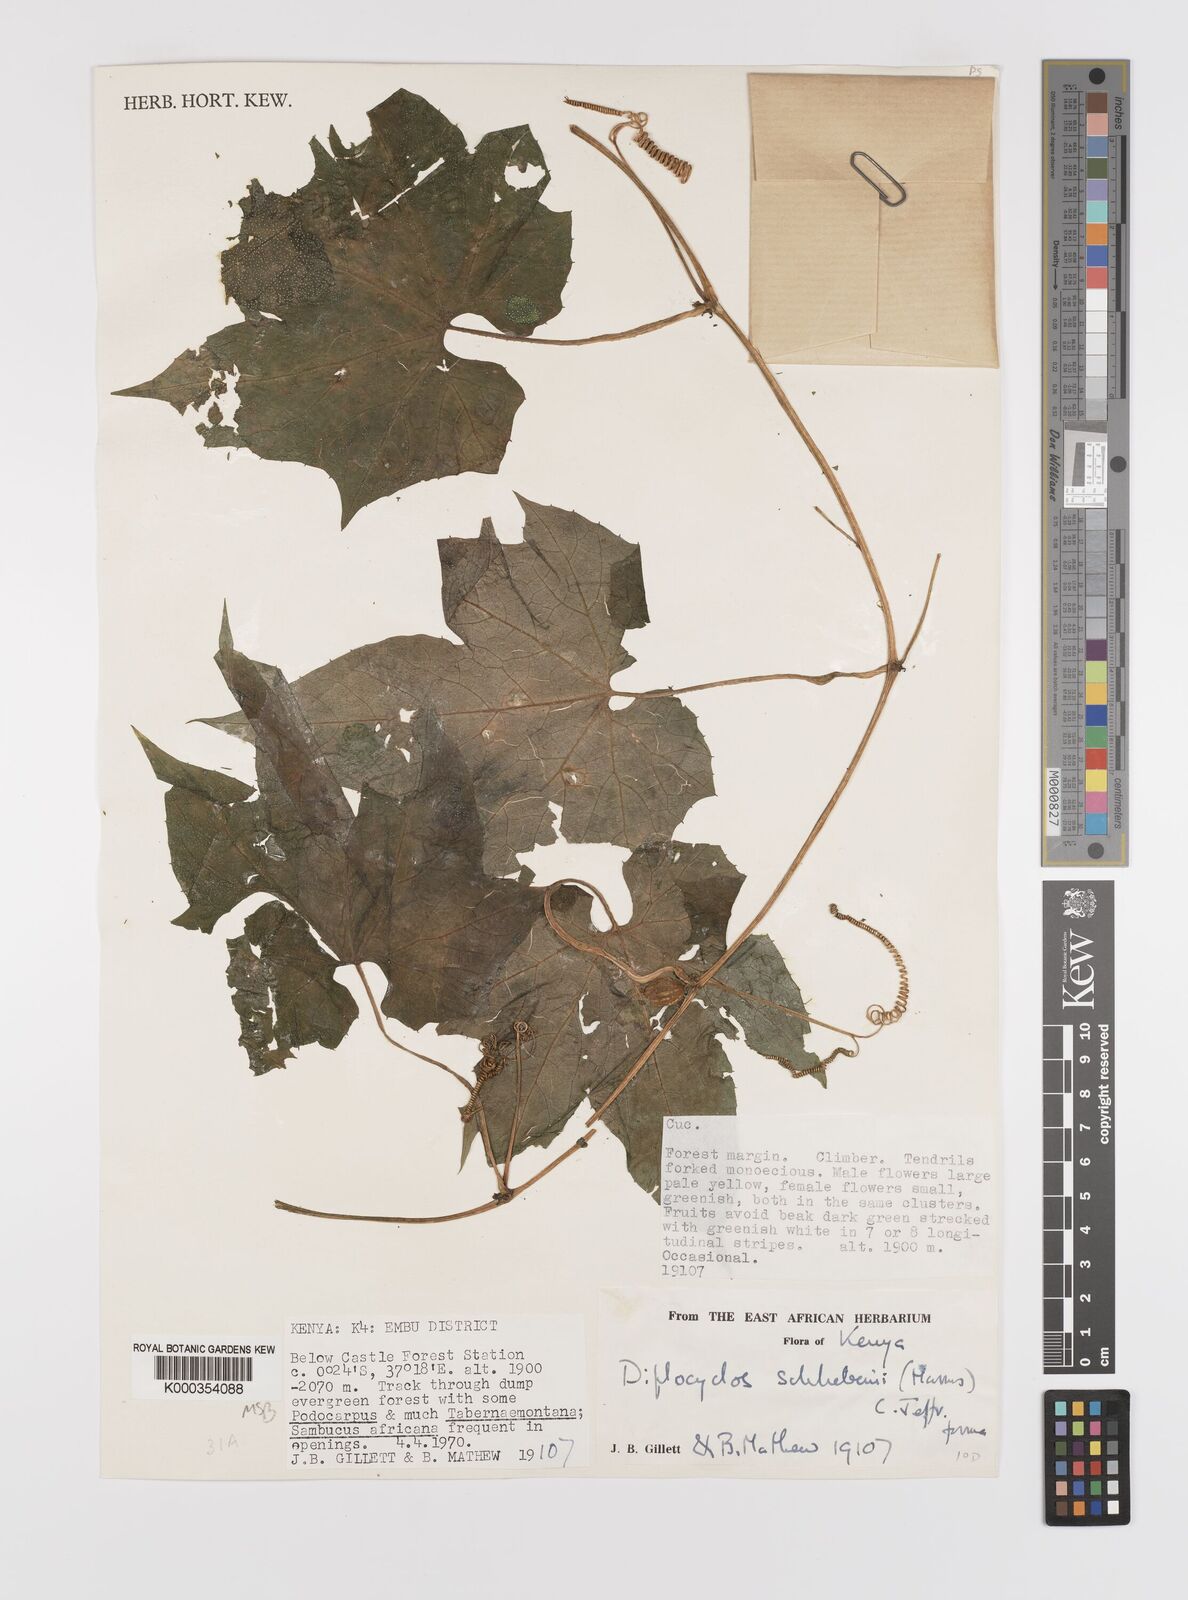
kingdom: Plantae
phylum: Tracheophyta
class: Magnoliopsida
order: Cucurbitales
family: Cucurbitaceae
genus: Diplocyclos
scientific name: Diplocyclos schliebenii
